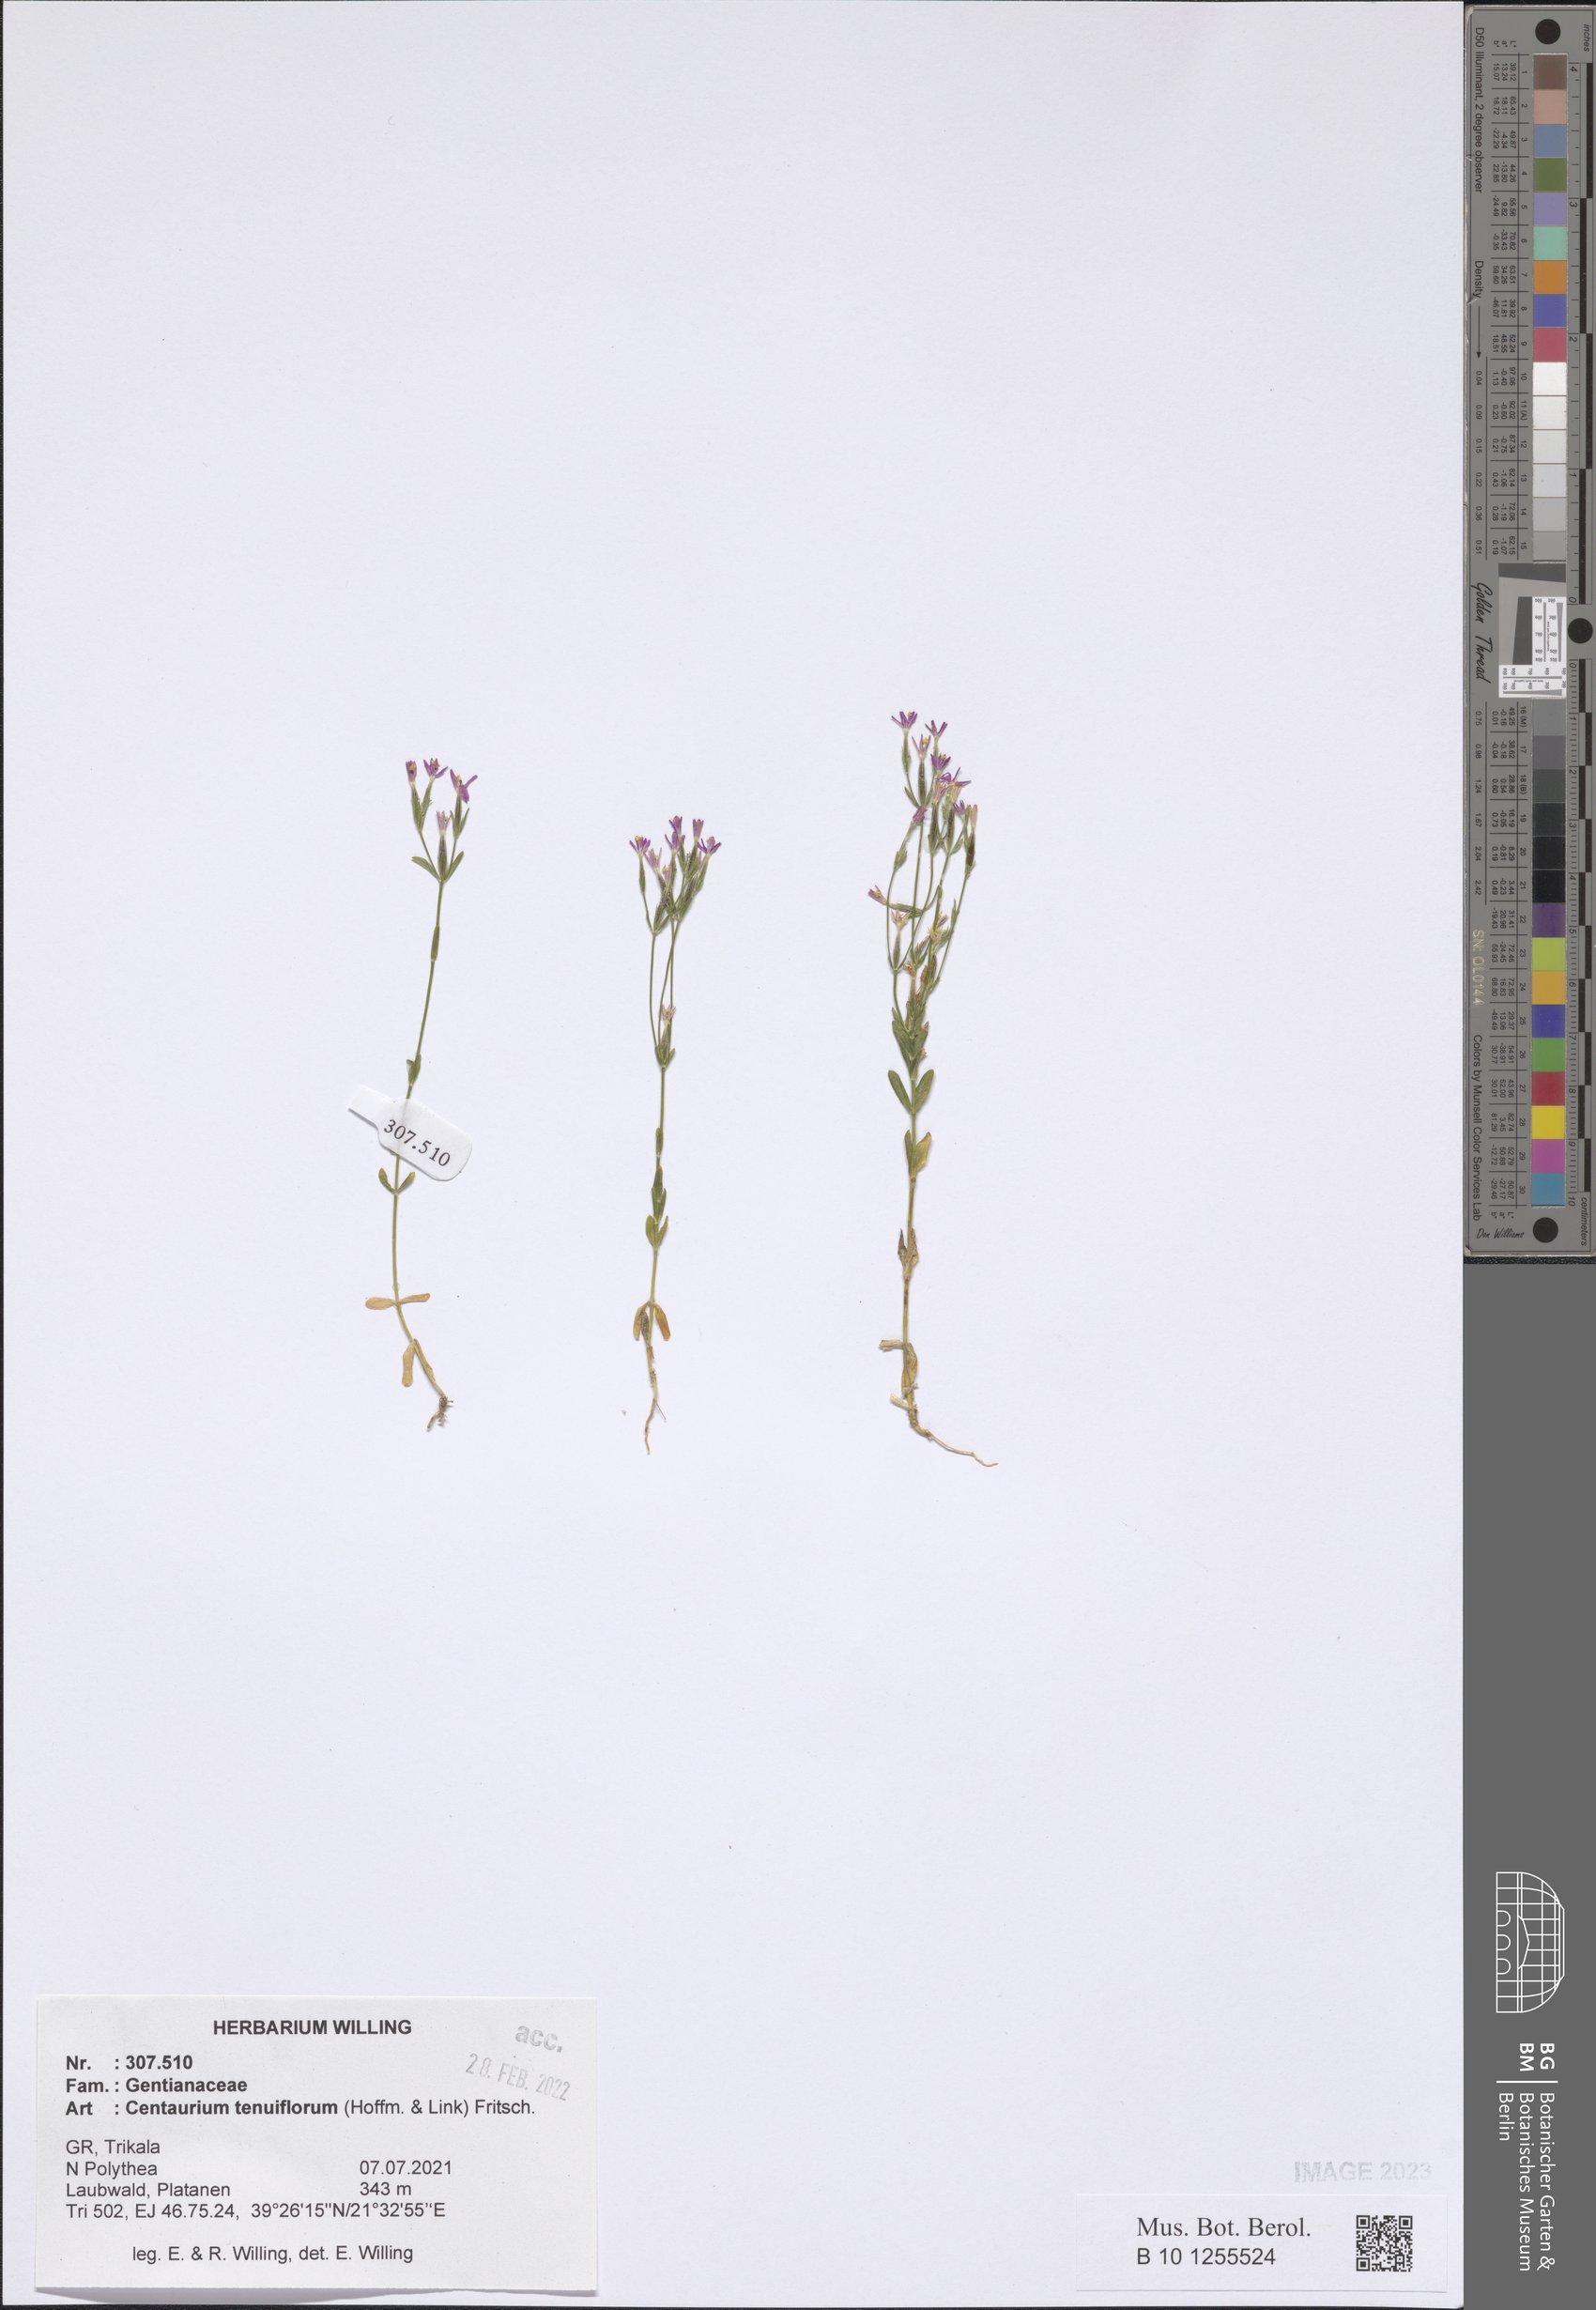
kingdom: Plantae
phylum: Tracheophyta
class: Magnoliopsida
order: Gentianales
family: Gentianaceae
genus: Centaurium
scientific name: Centaurium tenuiflorum
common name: Slender centaury
